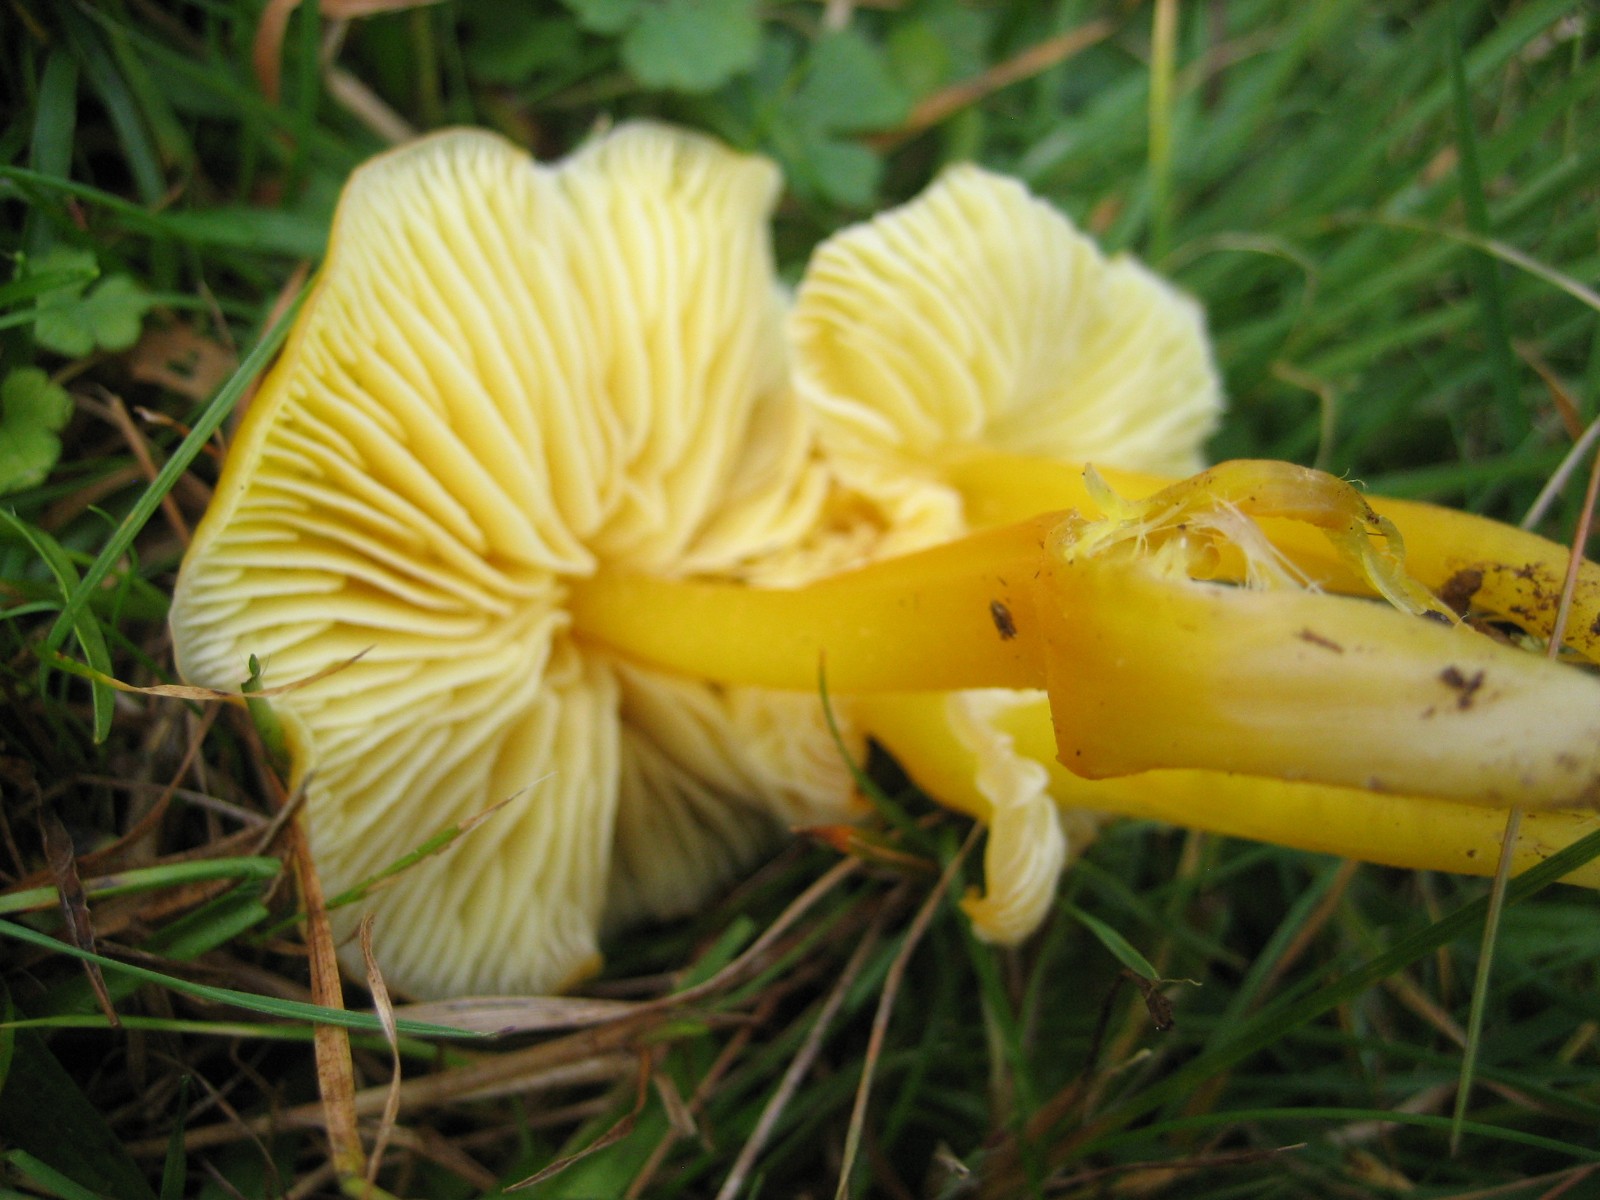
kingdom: Fungi
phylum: Basidiomycota
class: Agaricomycetes
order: Agaricales
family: Hygrophoraceae
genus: Hygrocybe
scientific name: Hygrocybe chlorophana
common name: gul vokshat
